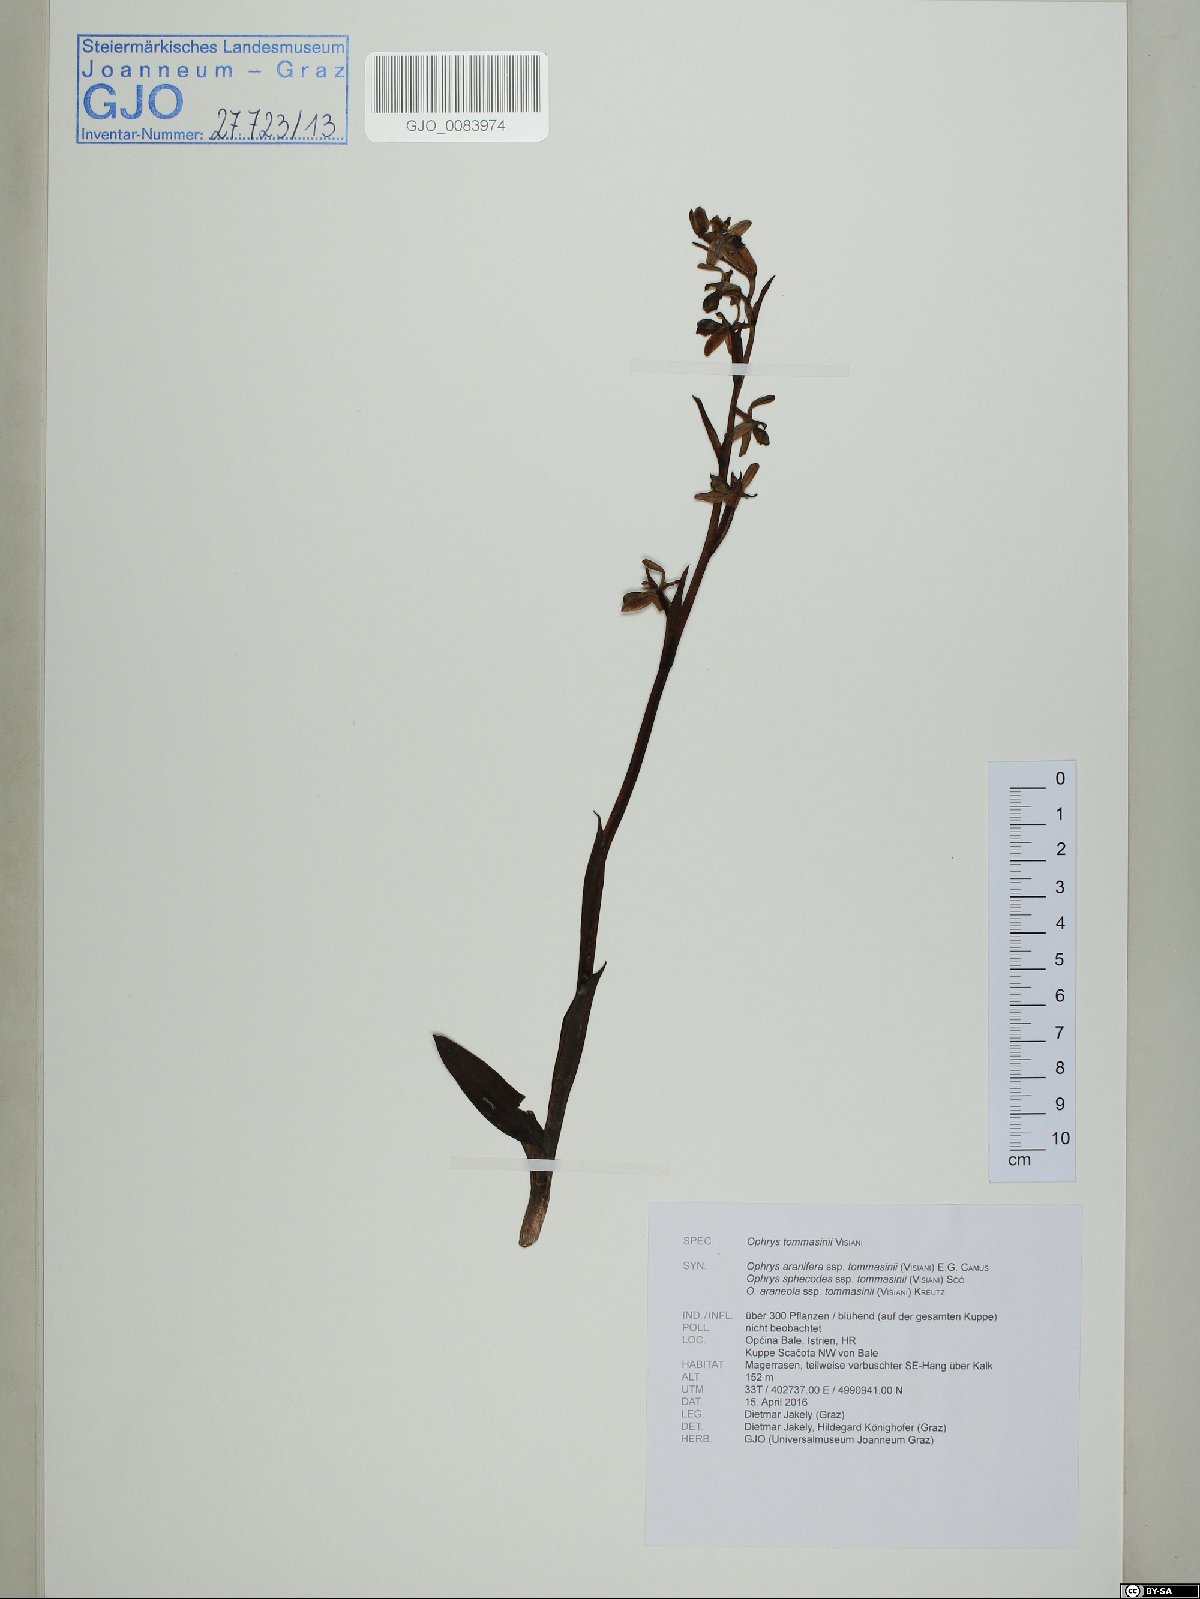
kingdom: Plantae
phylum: Tracheophyta
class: Liliopsida
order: Asparagales
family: Orchidaceae
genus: Ophrys
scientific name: Ophrys sphegodes
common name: Early spider-orchid
